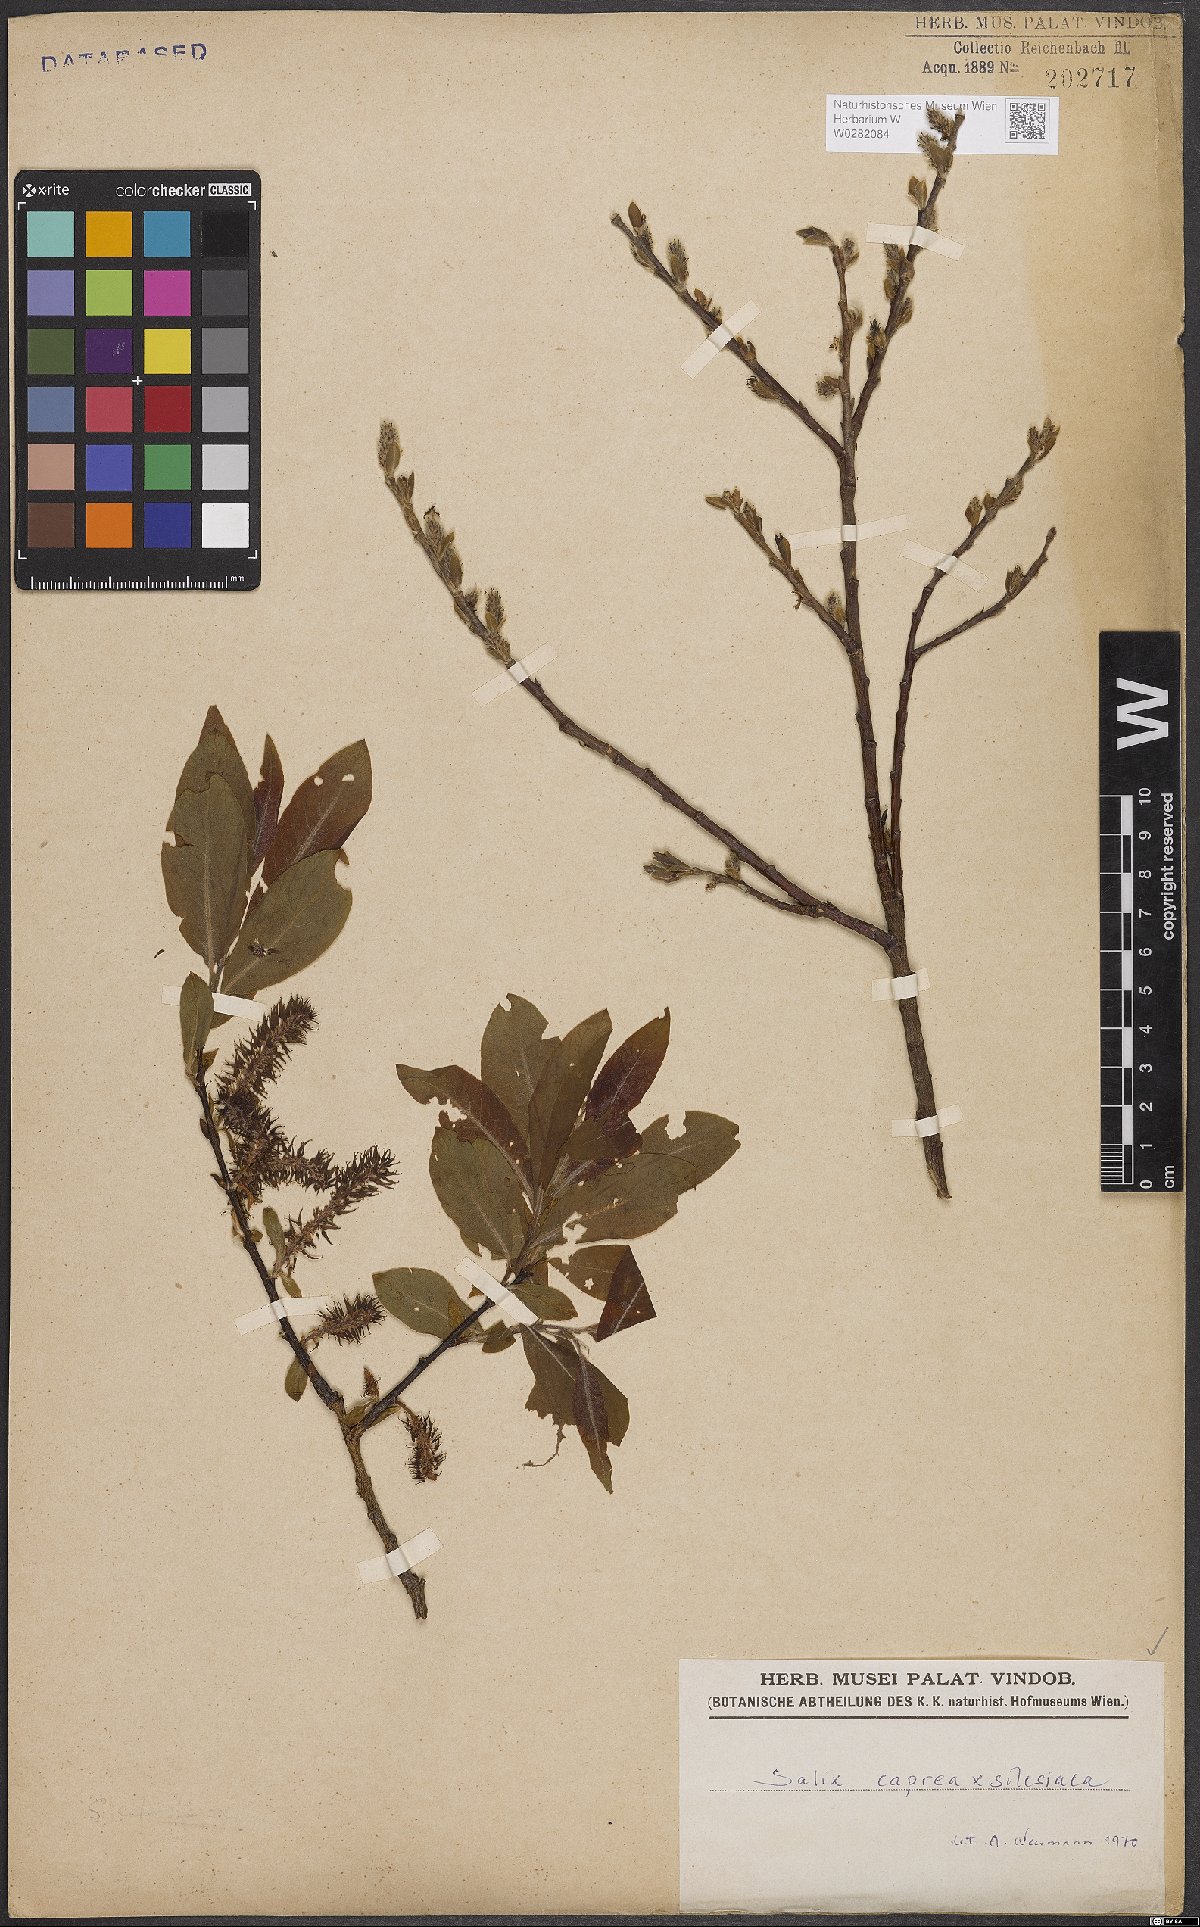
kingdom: Plantae
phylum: Tracheophyta
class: Magnoliopsida
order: Malpighiales
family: Salicaceae
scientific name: Salicaceae
